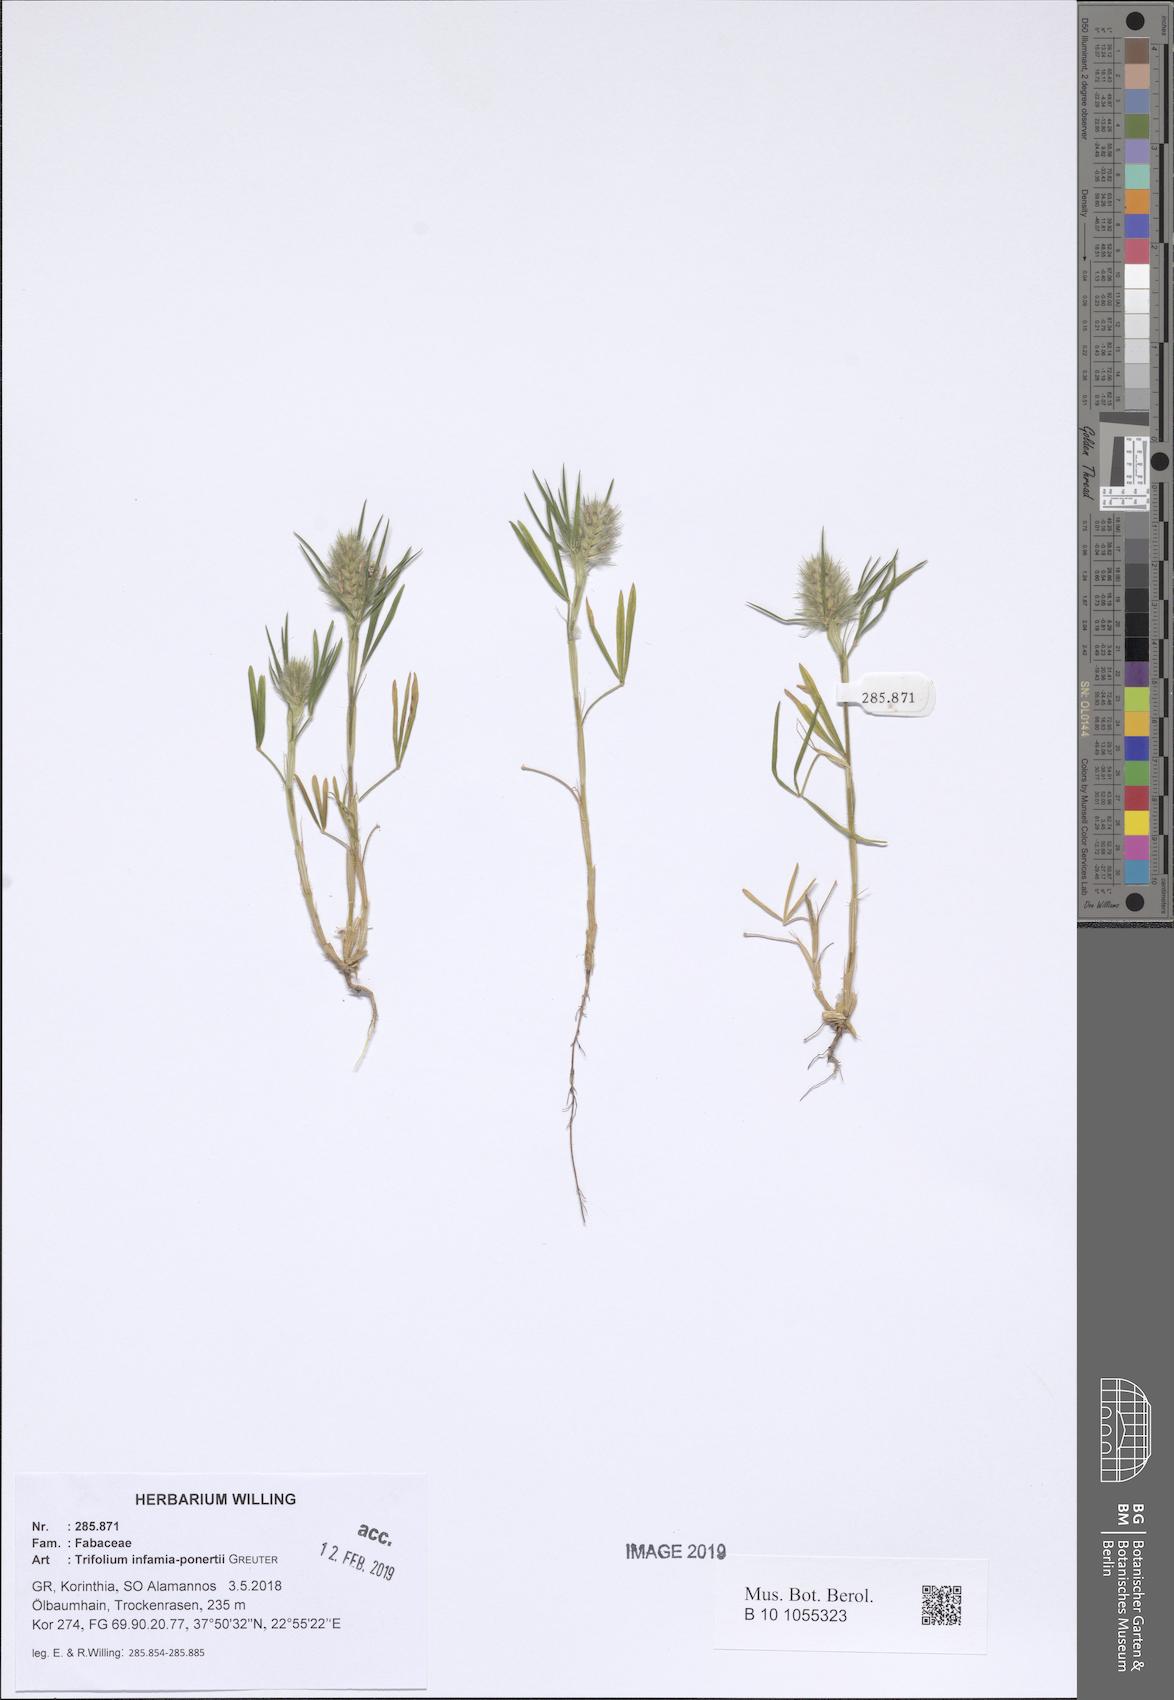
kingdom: Plantae
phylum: Tracheophyta
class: Magnoliopsida
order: Fabales
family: Fabaceae
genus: Trifolium
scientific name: Trifolium infamia-ponertii
